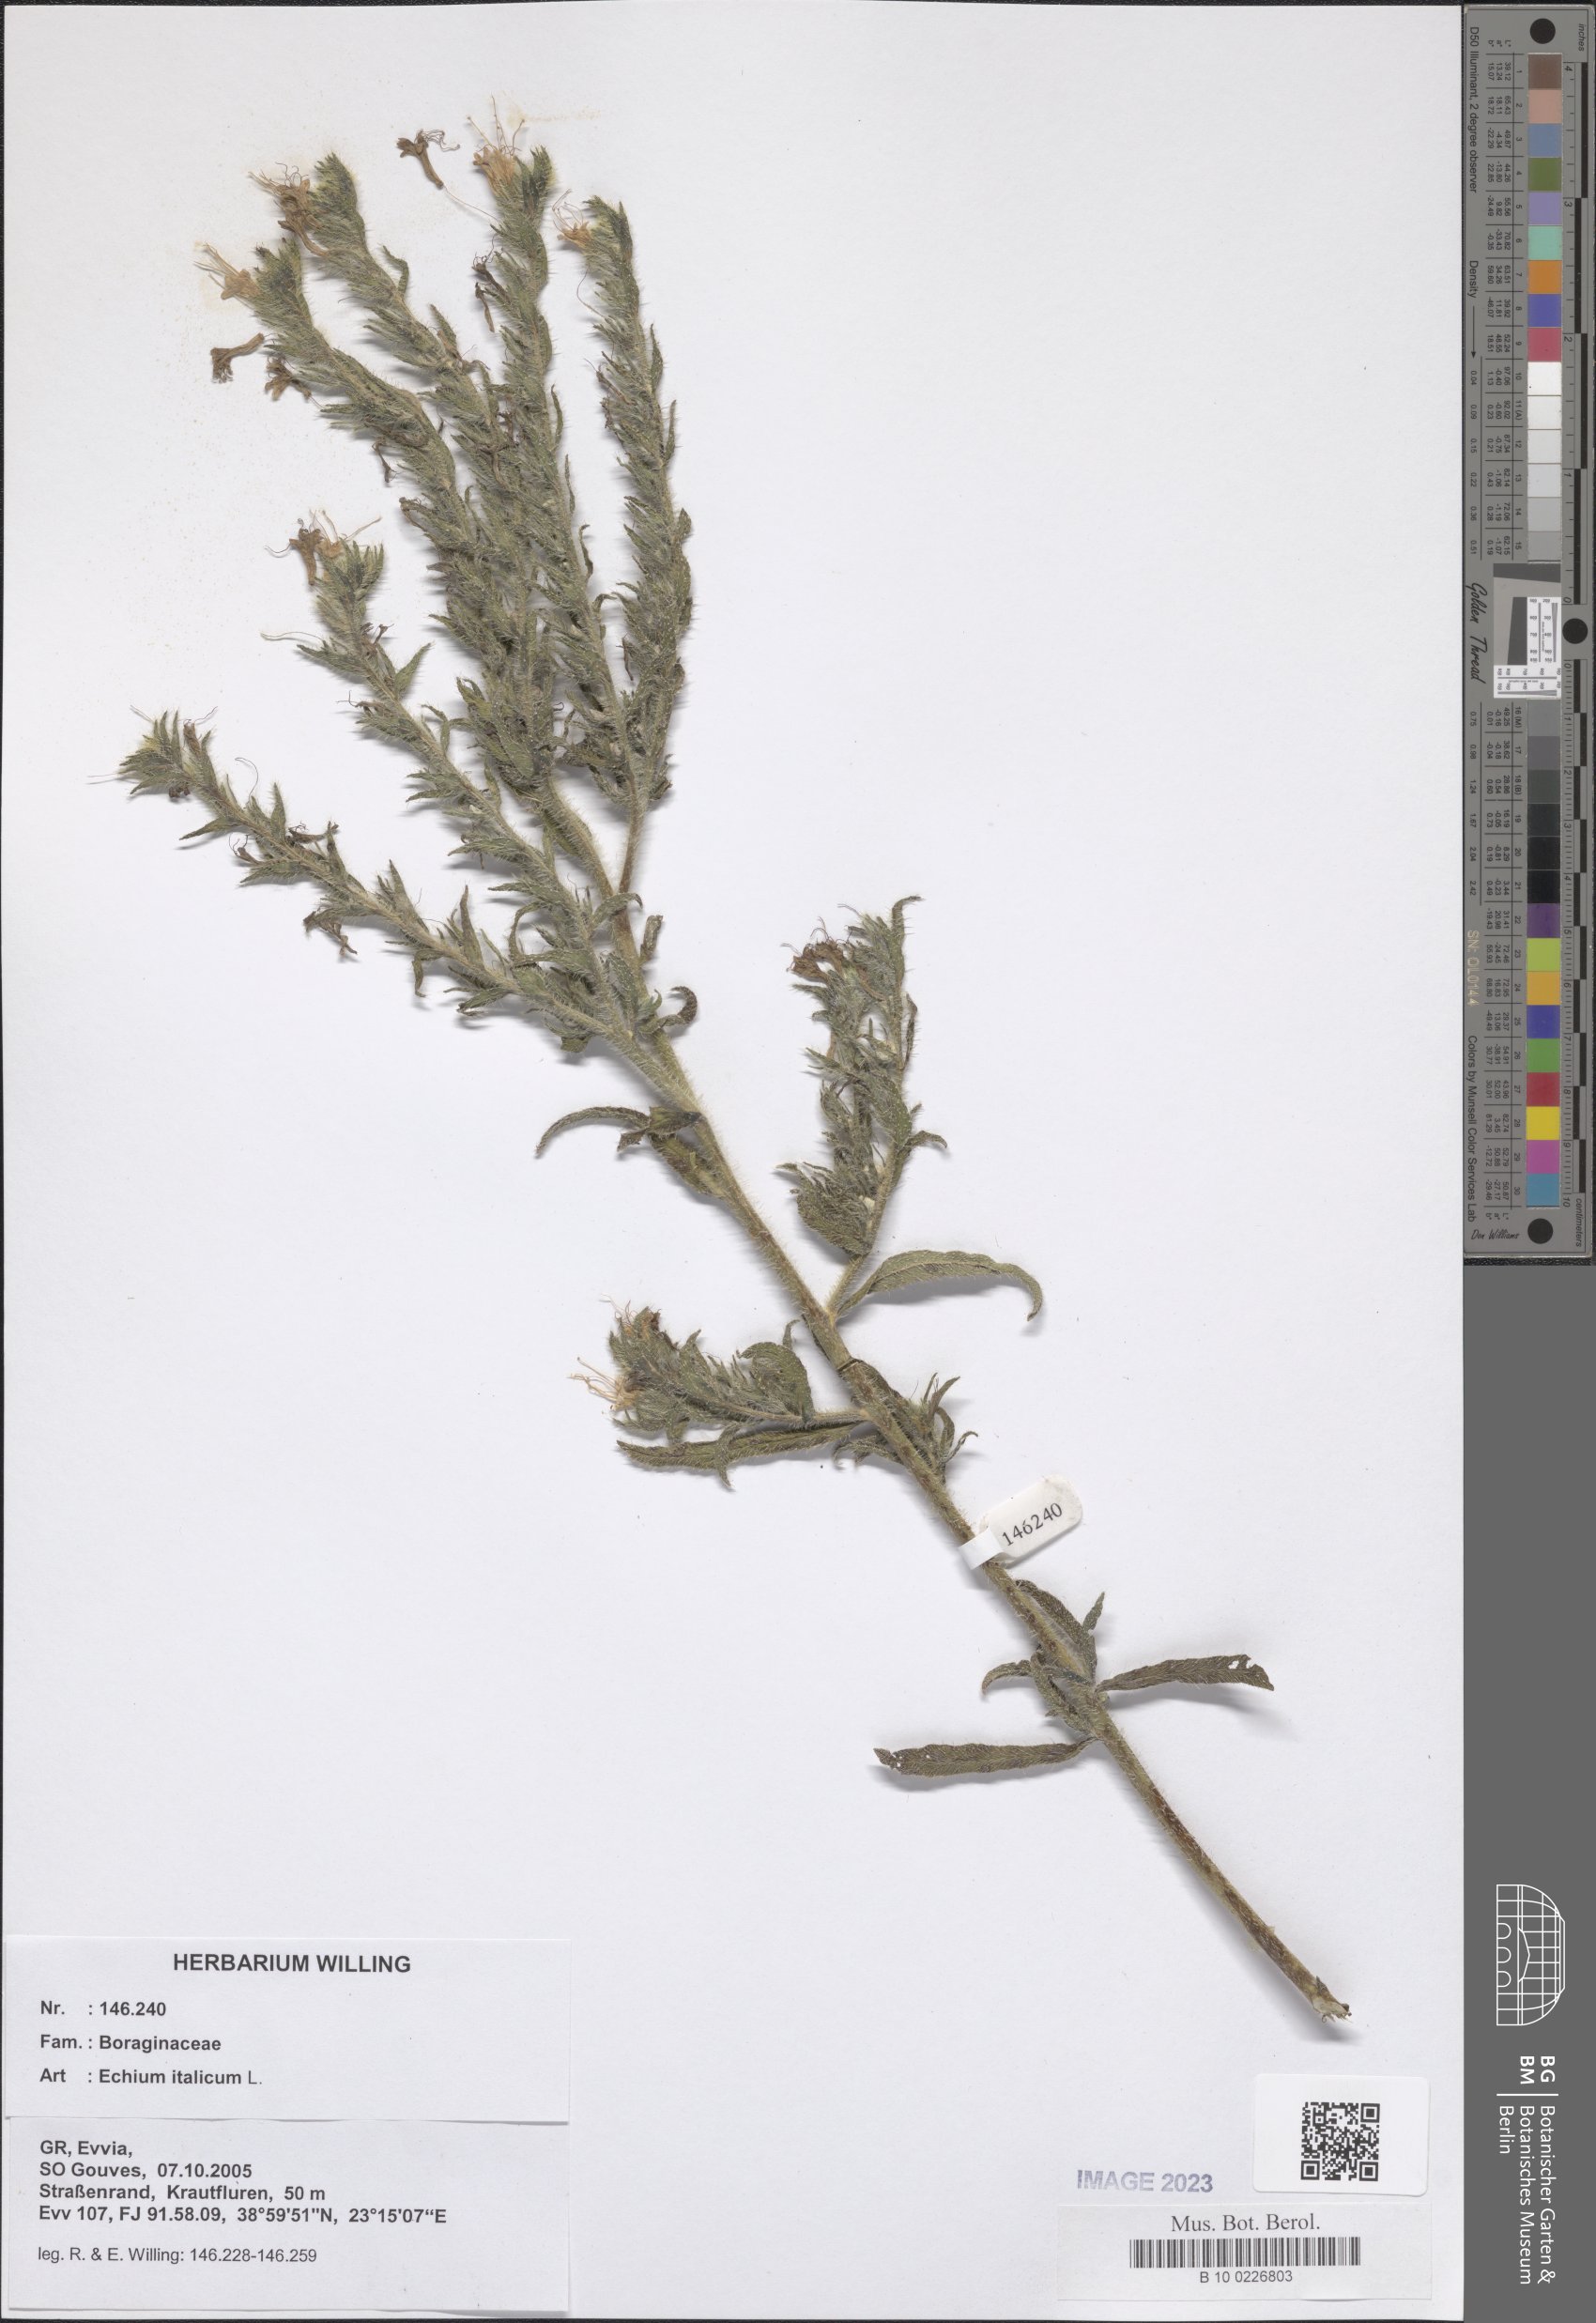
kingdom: Plantae
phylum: Tracheophyta
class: Magnoliopsida
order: Boraginales
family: Boraginaceae
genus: Echium
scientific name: Echium italicum
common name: Italian viper's bugloss
